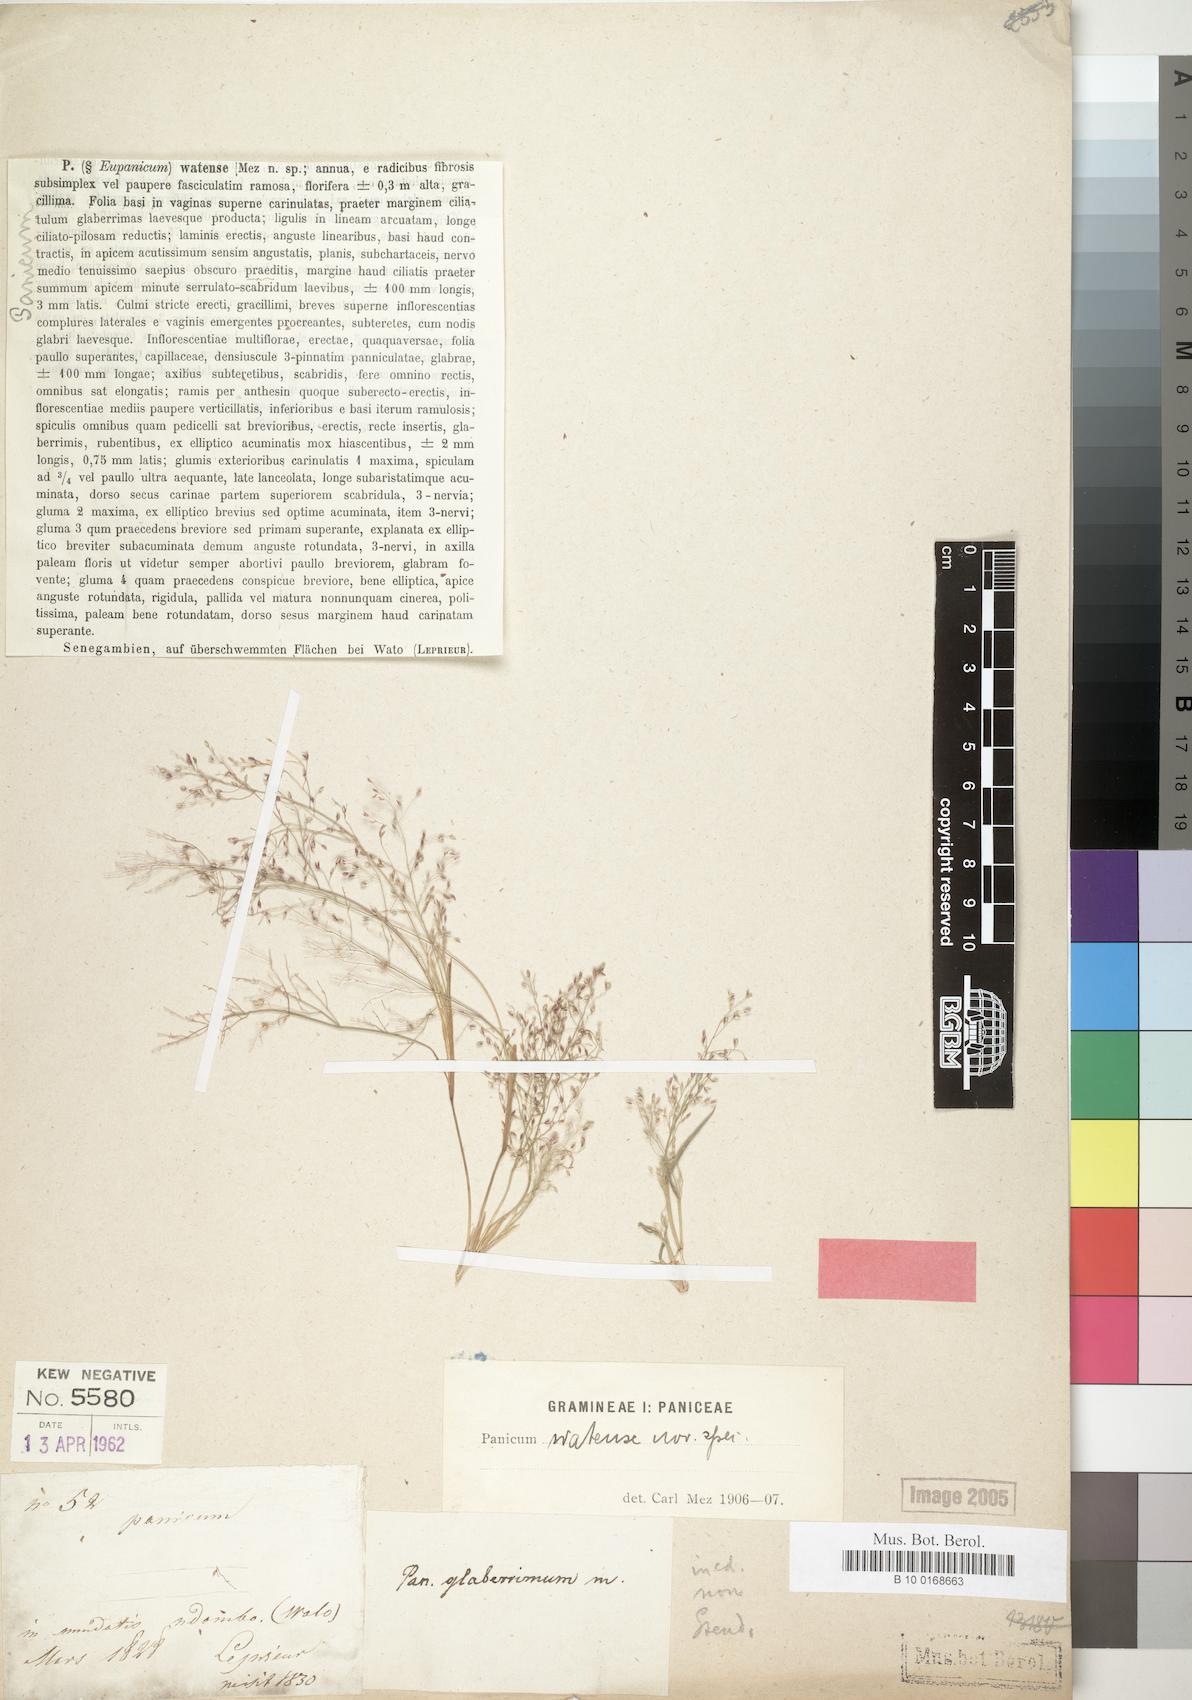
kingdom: Plantae
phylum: Tracheophyta
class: Liliopsida
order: Poales
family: Poaceae
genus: Panicum
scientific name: Panicum humile
